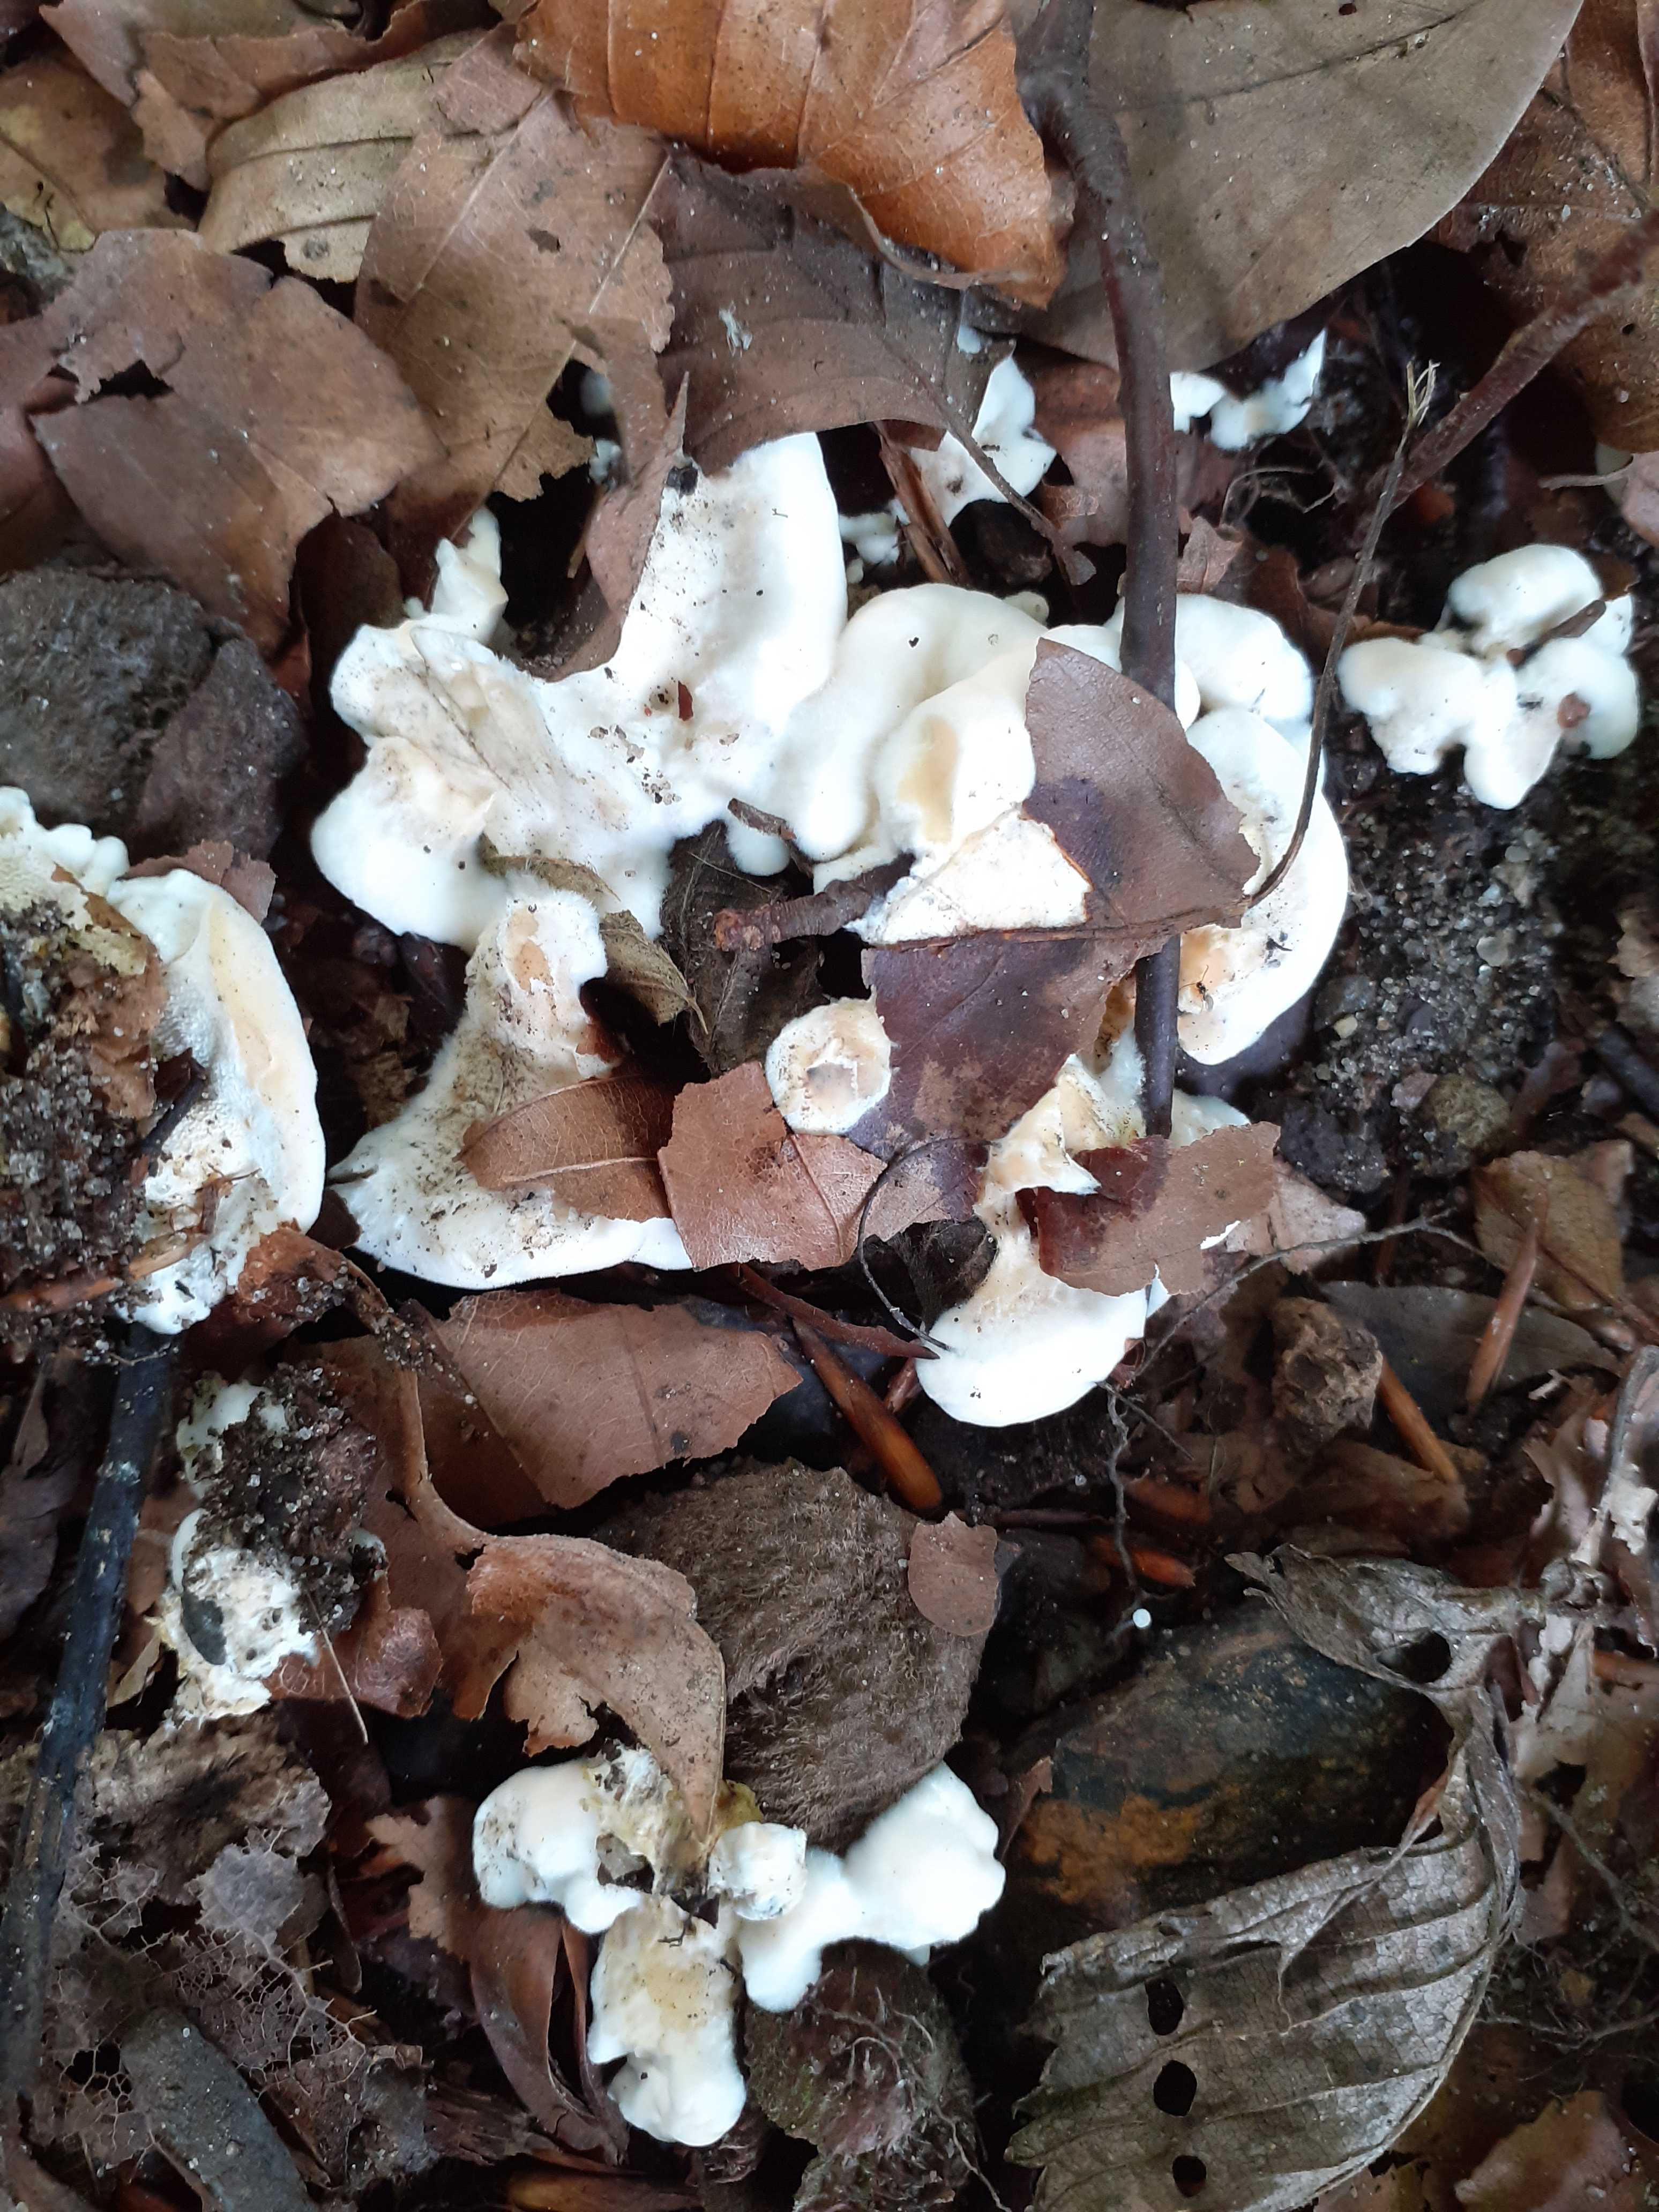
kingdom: Fungi
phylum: Basidiomycota
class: Agaricomycetes
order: Cantharellales
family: Hydnaceae
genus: Sistotrema
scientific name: Sistotrema confluens
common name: stilket kroneskorpe
